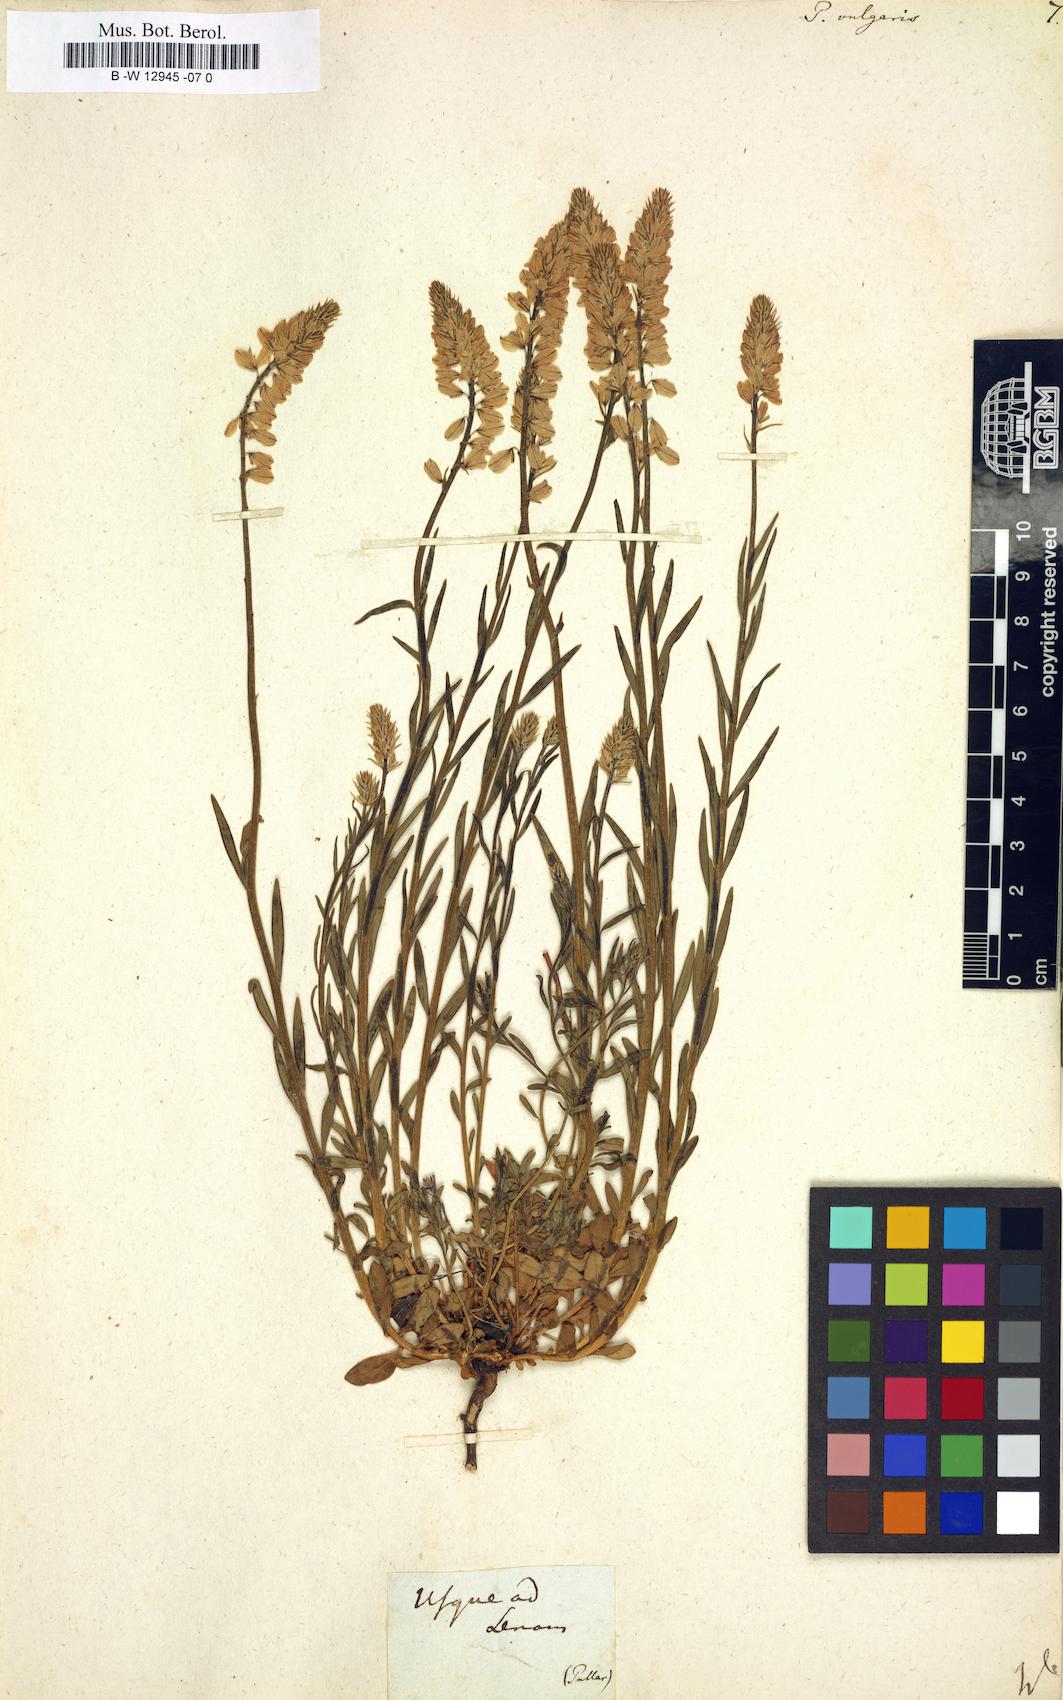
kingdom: Plantae
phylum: Tracheophyta
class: Magnoliopsida
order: Fabales
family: Polygalaceae
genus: Polygala
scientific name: Polygala vulgaris
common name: Common milkwort
